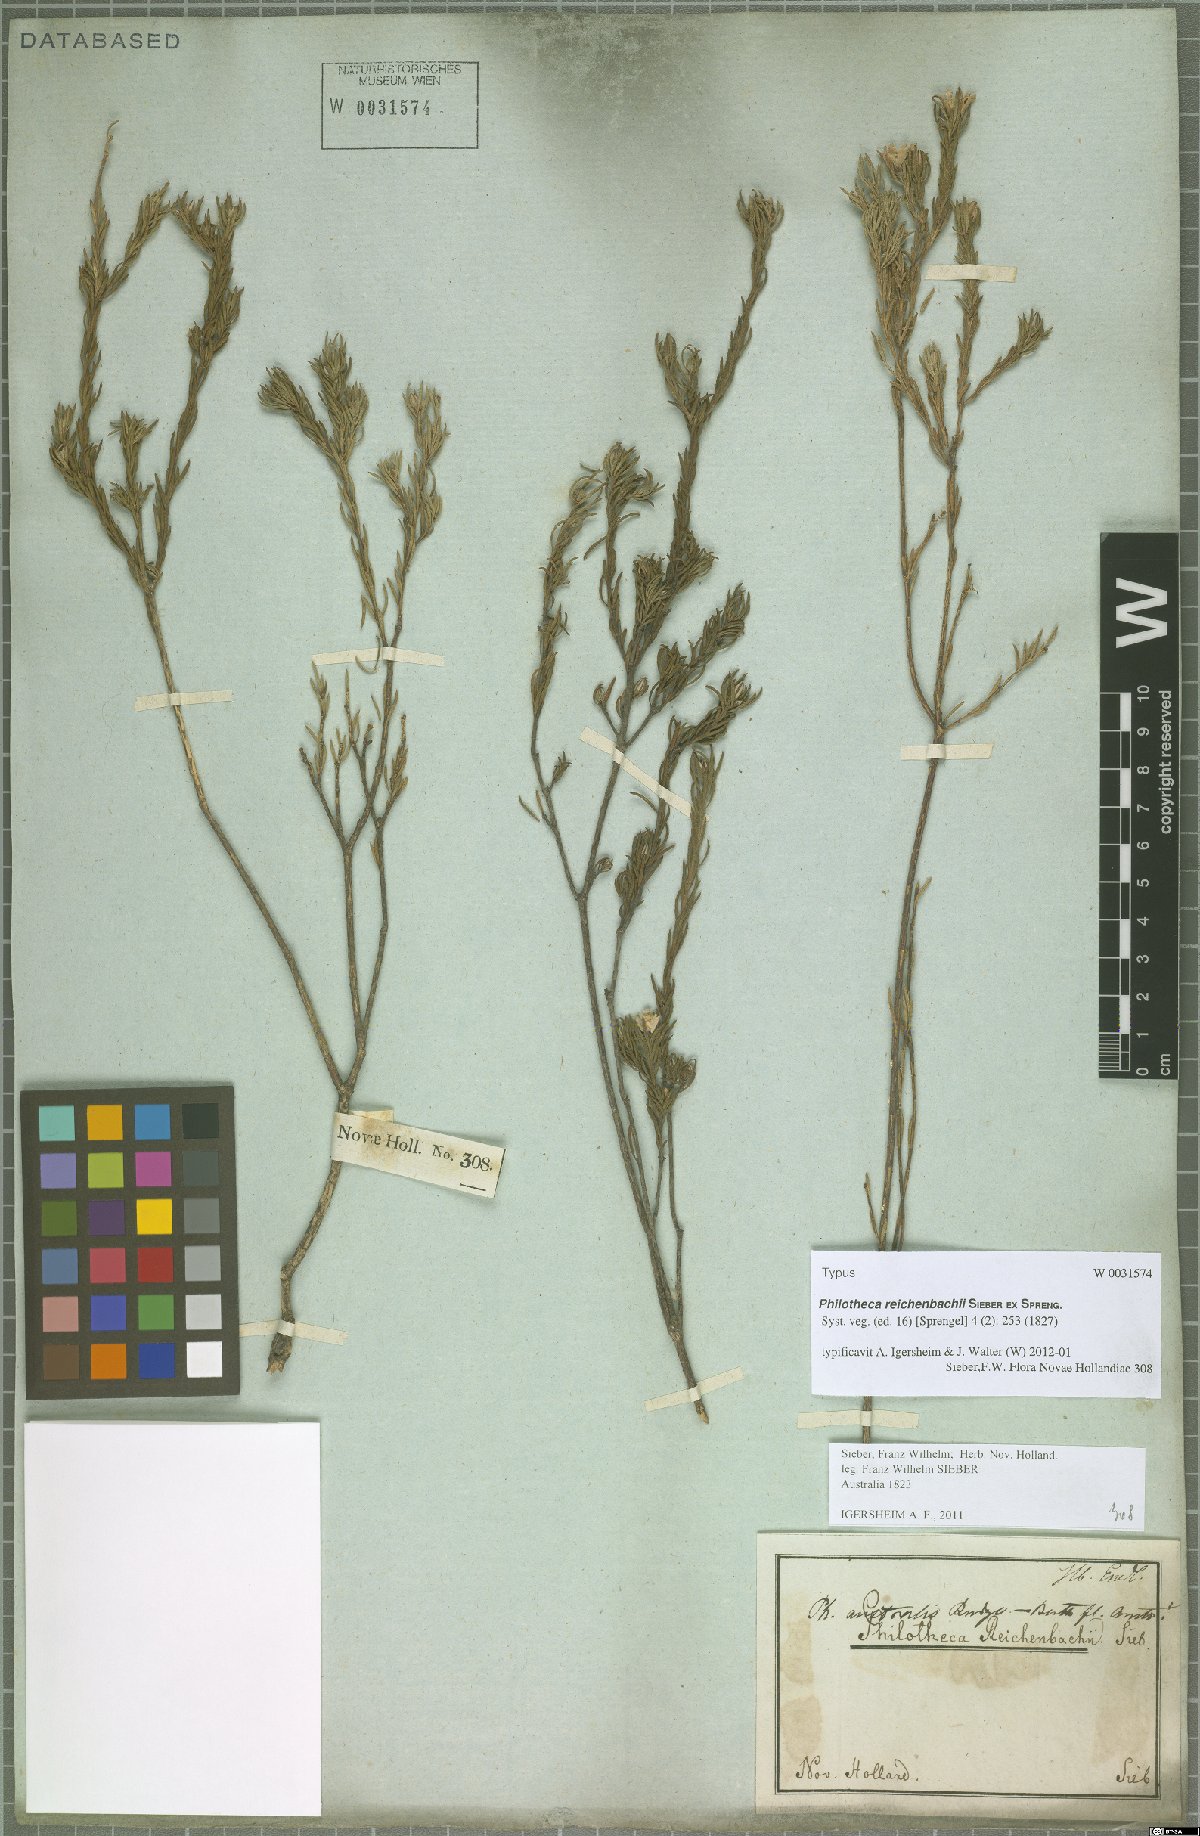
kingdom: Plantae
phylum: Tracheophyta
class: Magnoliopsida
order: Sapindales
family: Rutaceae
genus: Philotheca
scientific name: Philotheca reichenbachii
